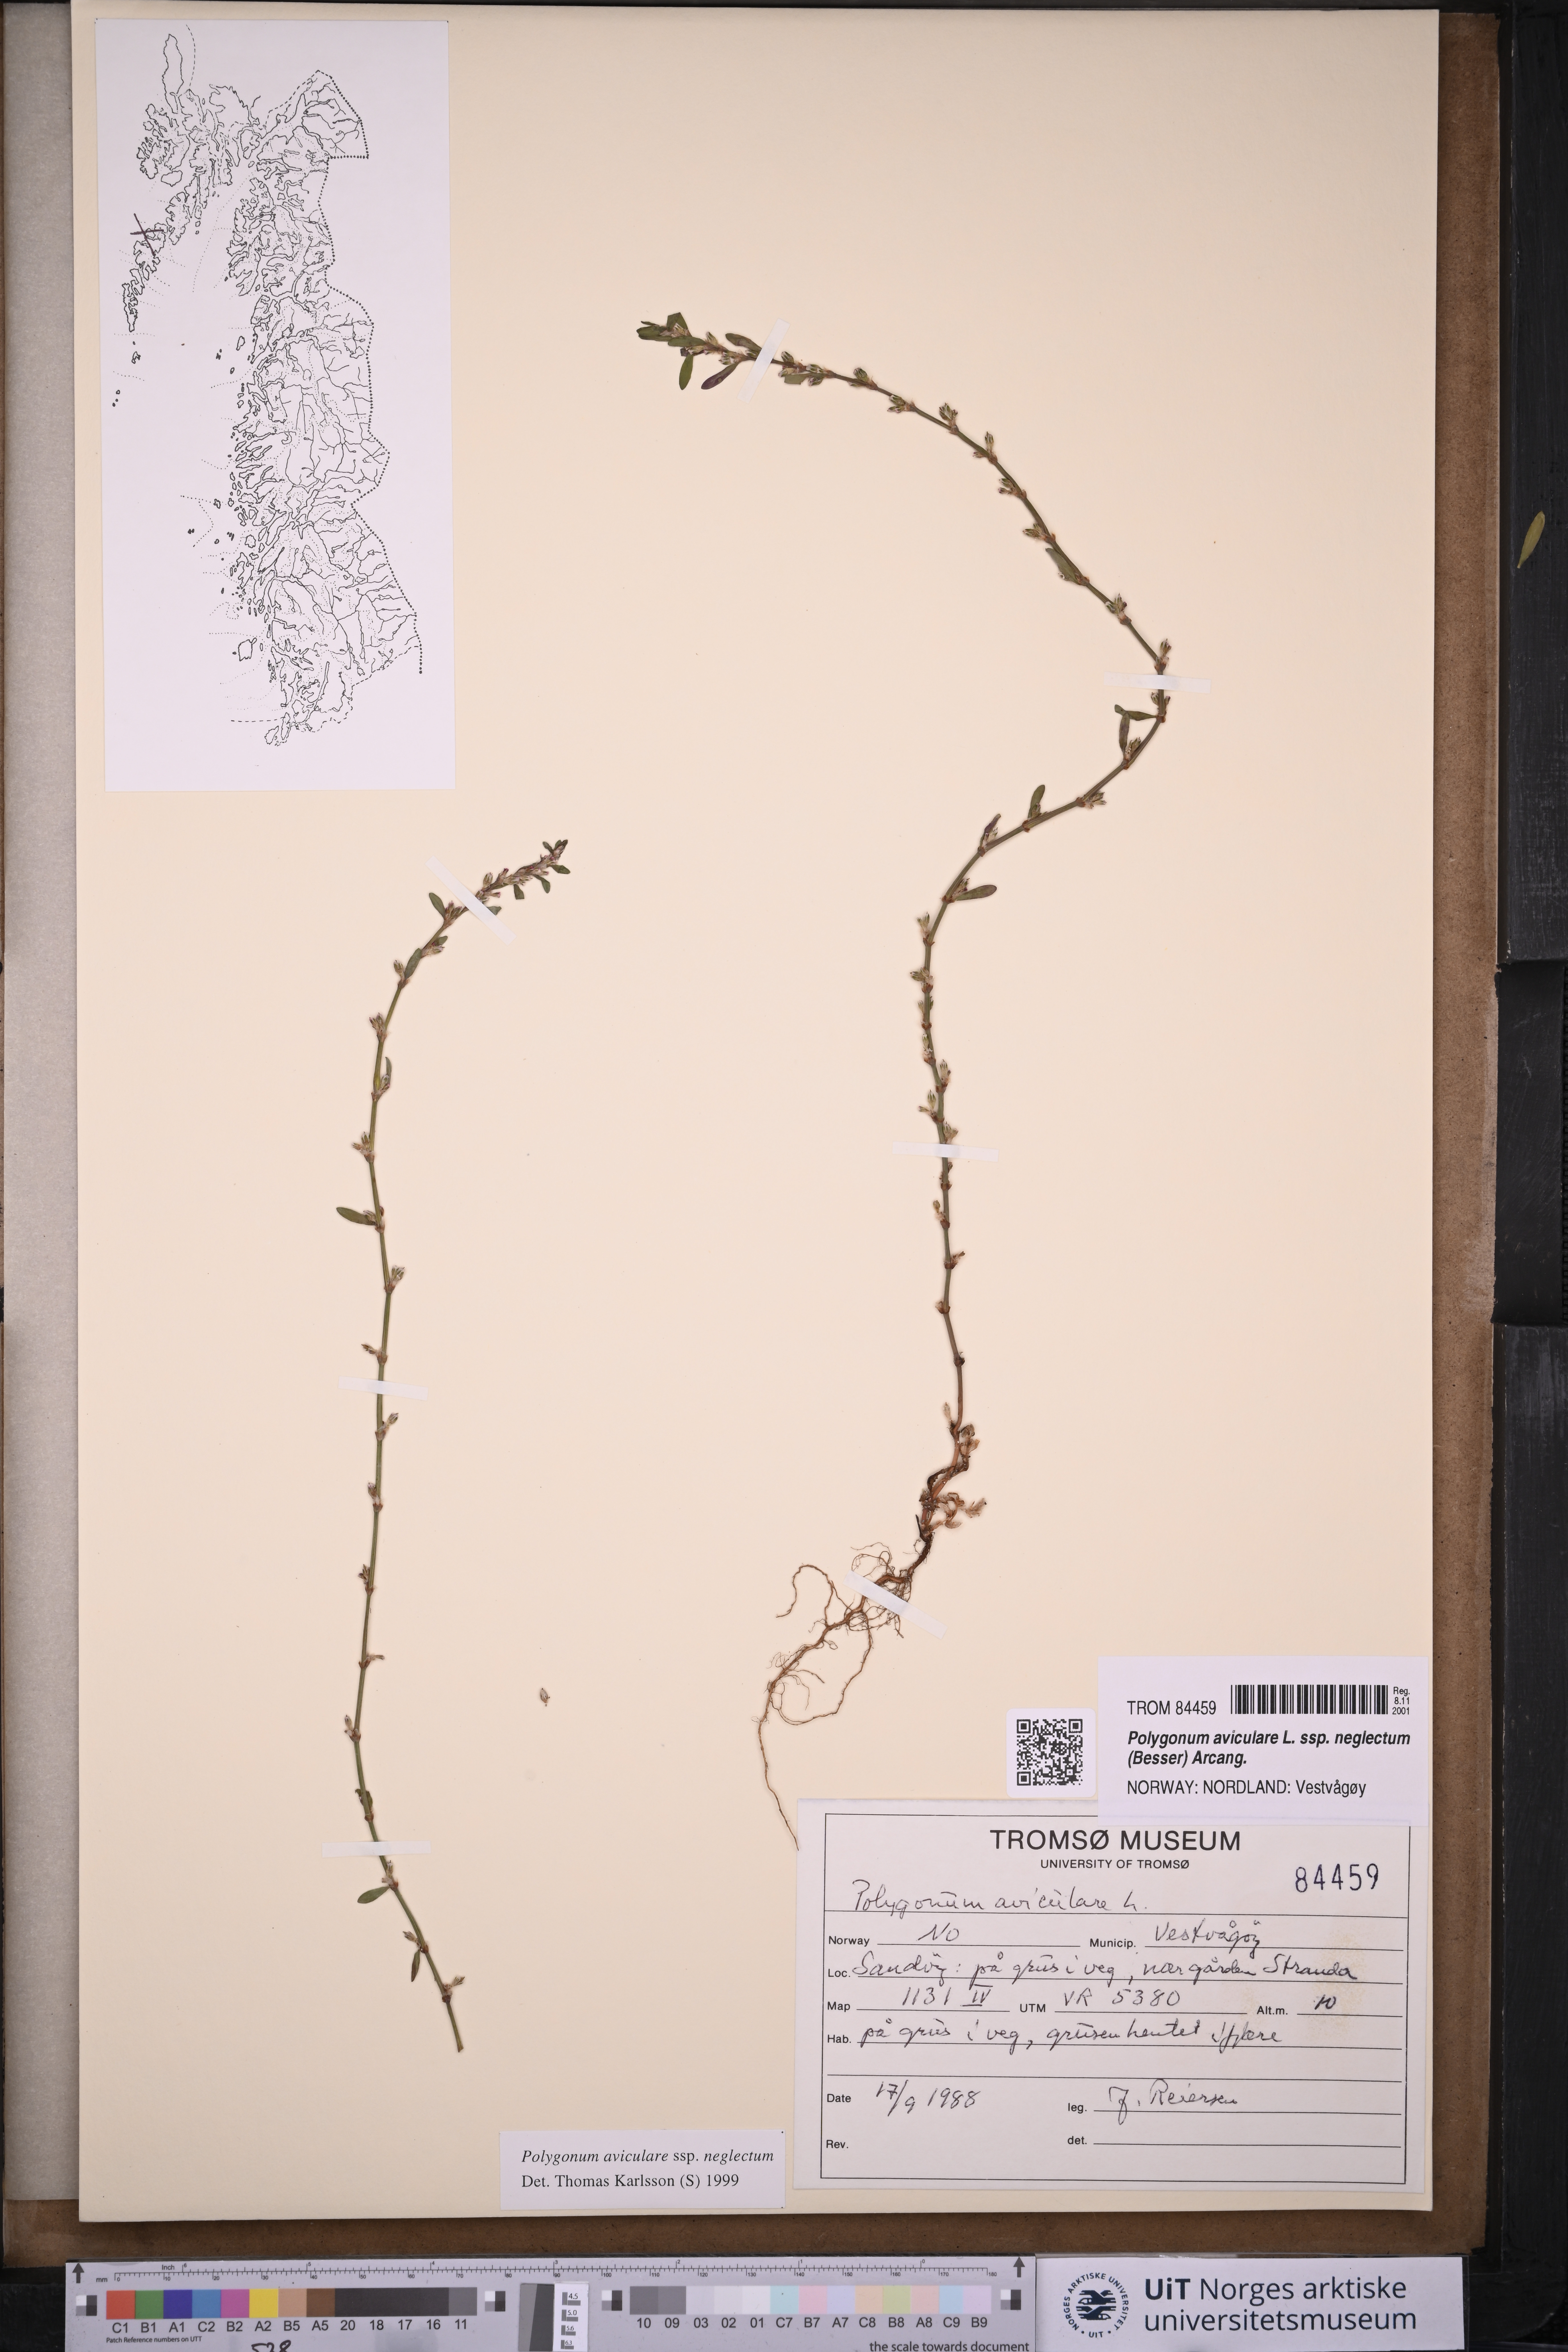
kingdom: Plantae
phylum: Tracheophyta
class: Magnoliopsida
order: Caryophyllales
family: Polygonaceae
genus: Polygonum
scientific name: Polygonum aviculare
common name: Prostrate knotweed
